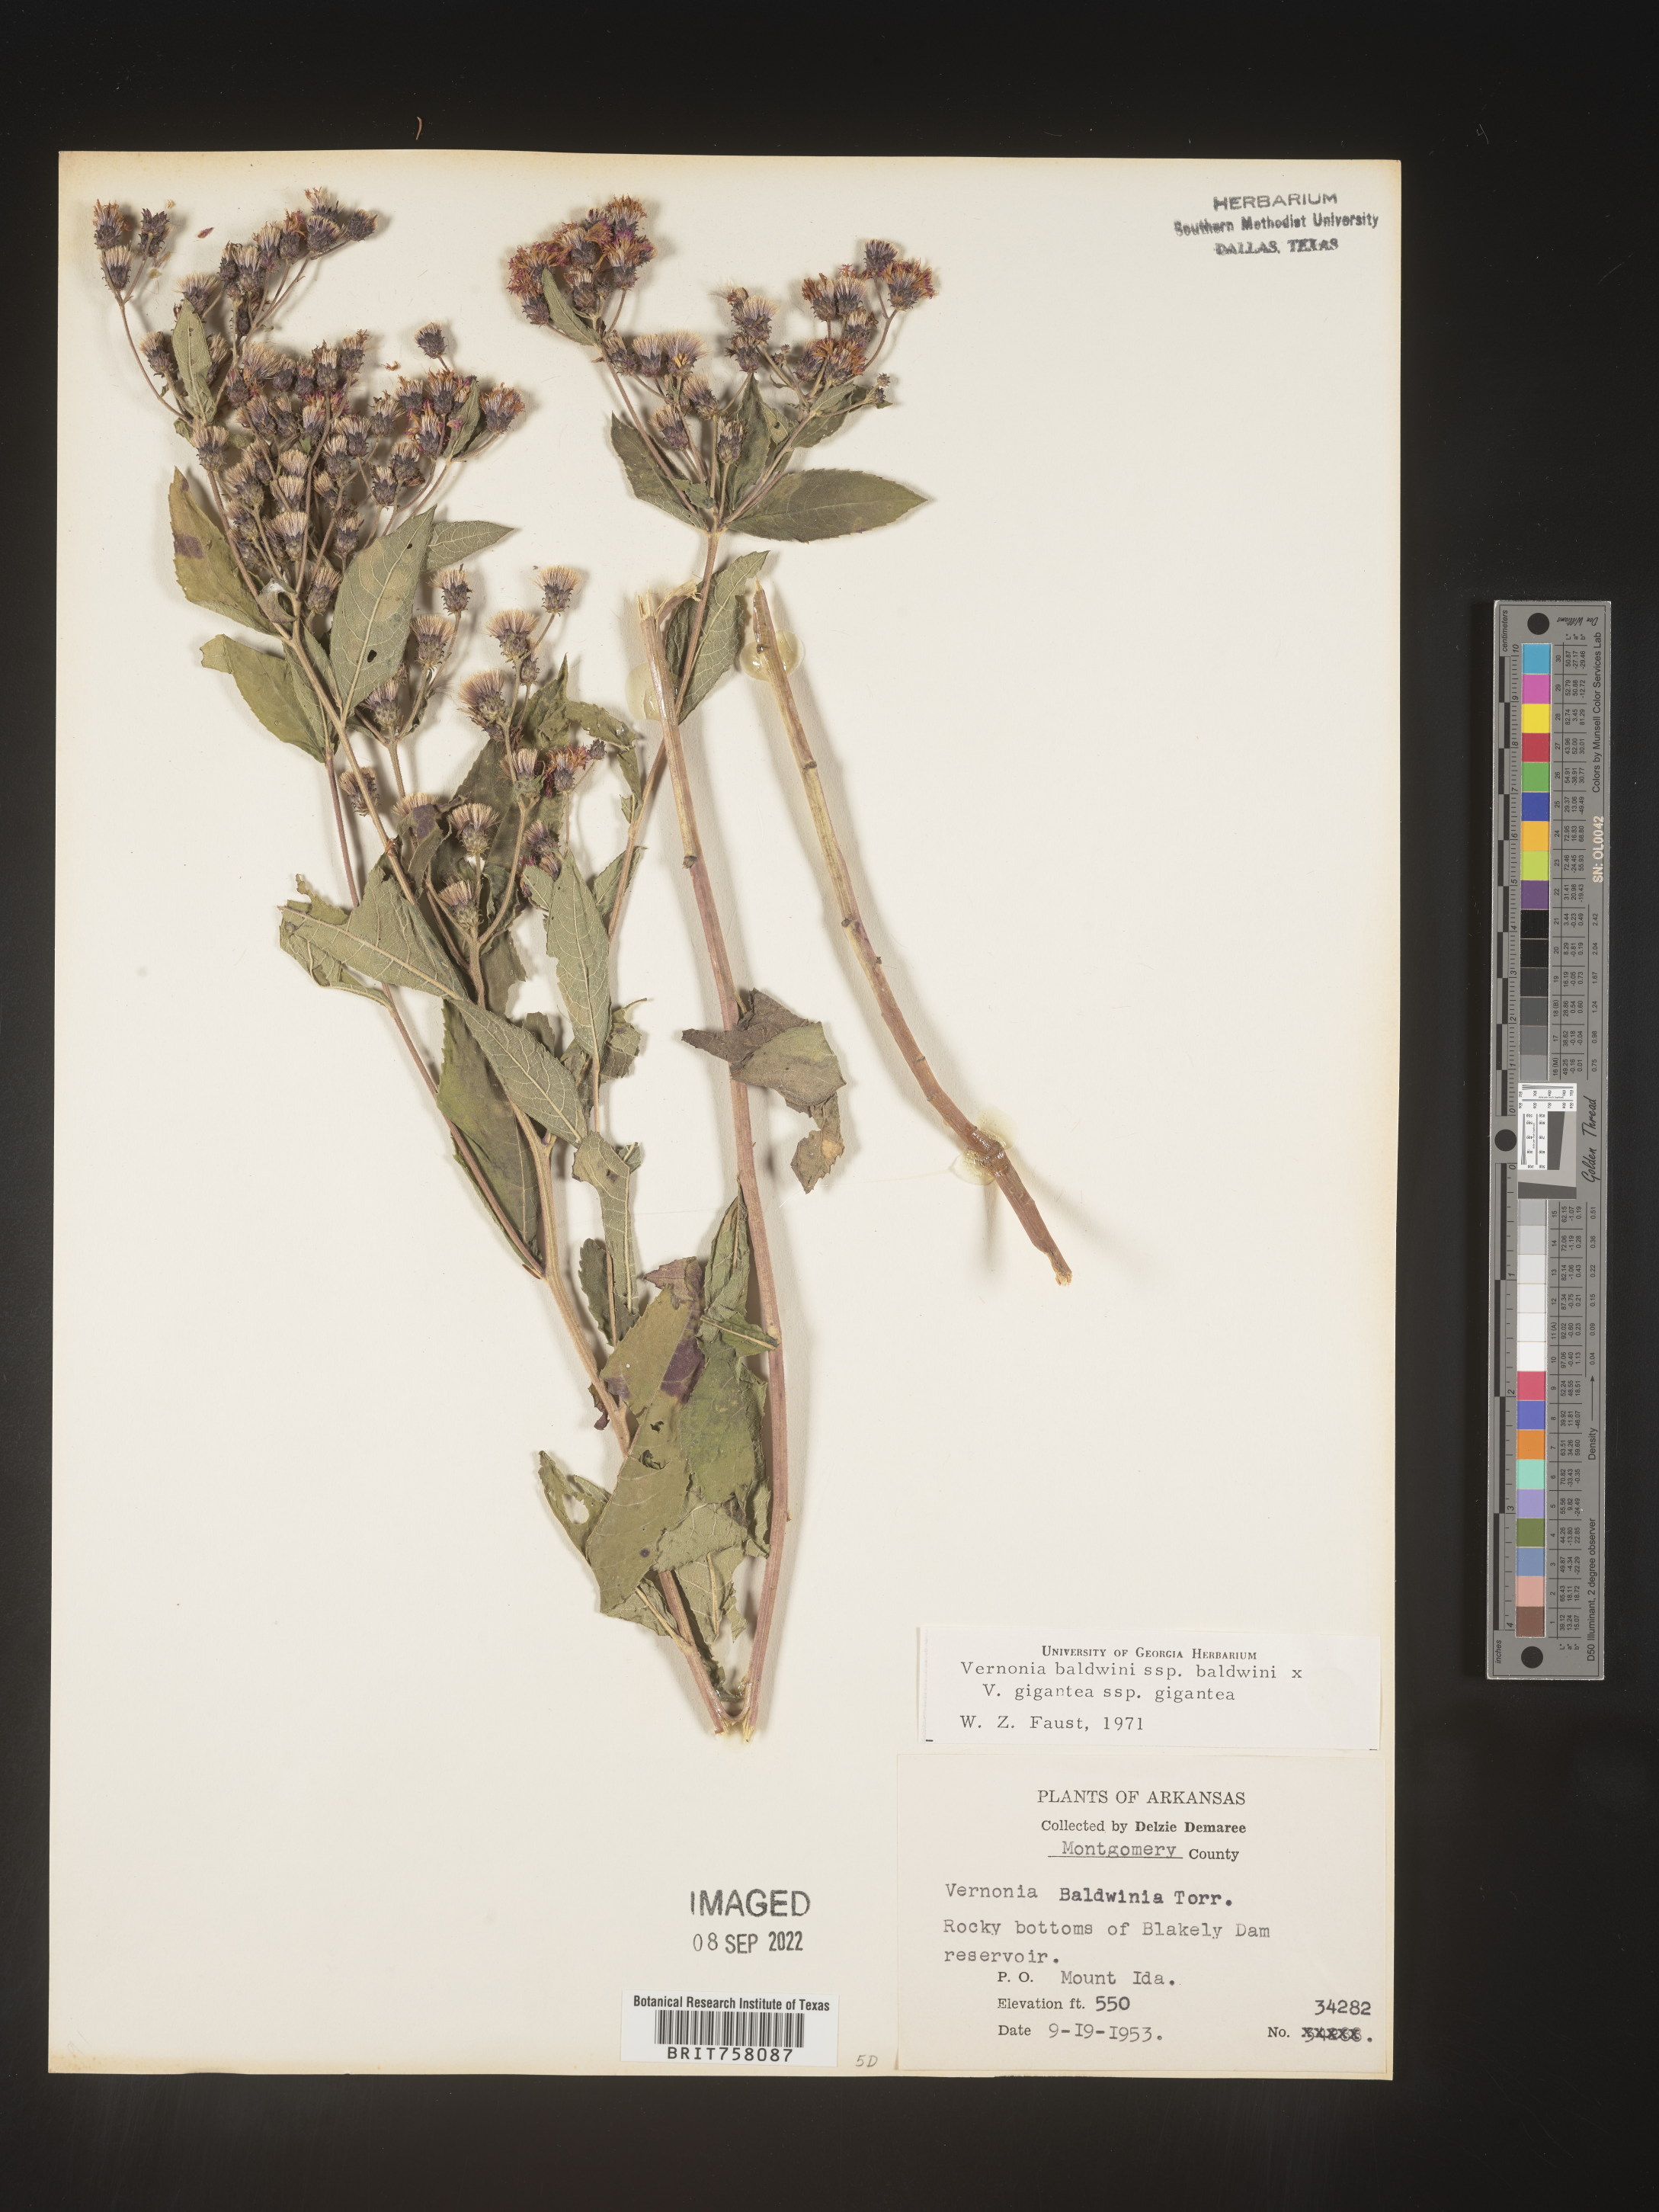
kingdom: Plantae
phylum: Tracheophyta
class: Magnoliopsida
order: Asterales
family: Asteraceae
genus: Vernonia
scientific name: Vernonia baldwinii
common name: Western ironweed
